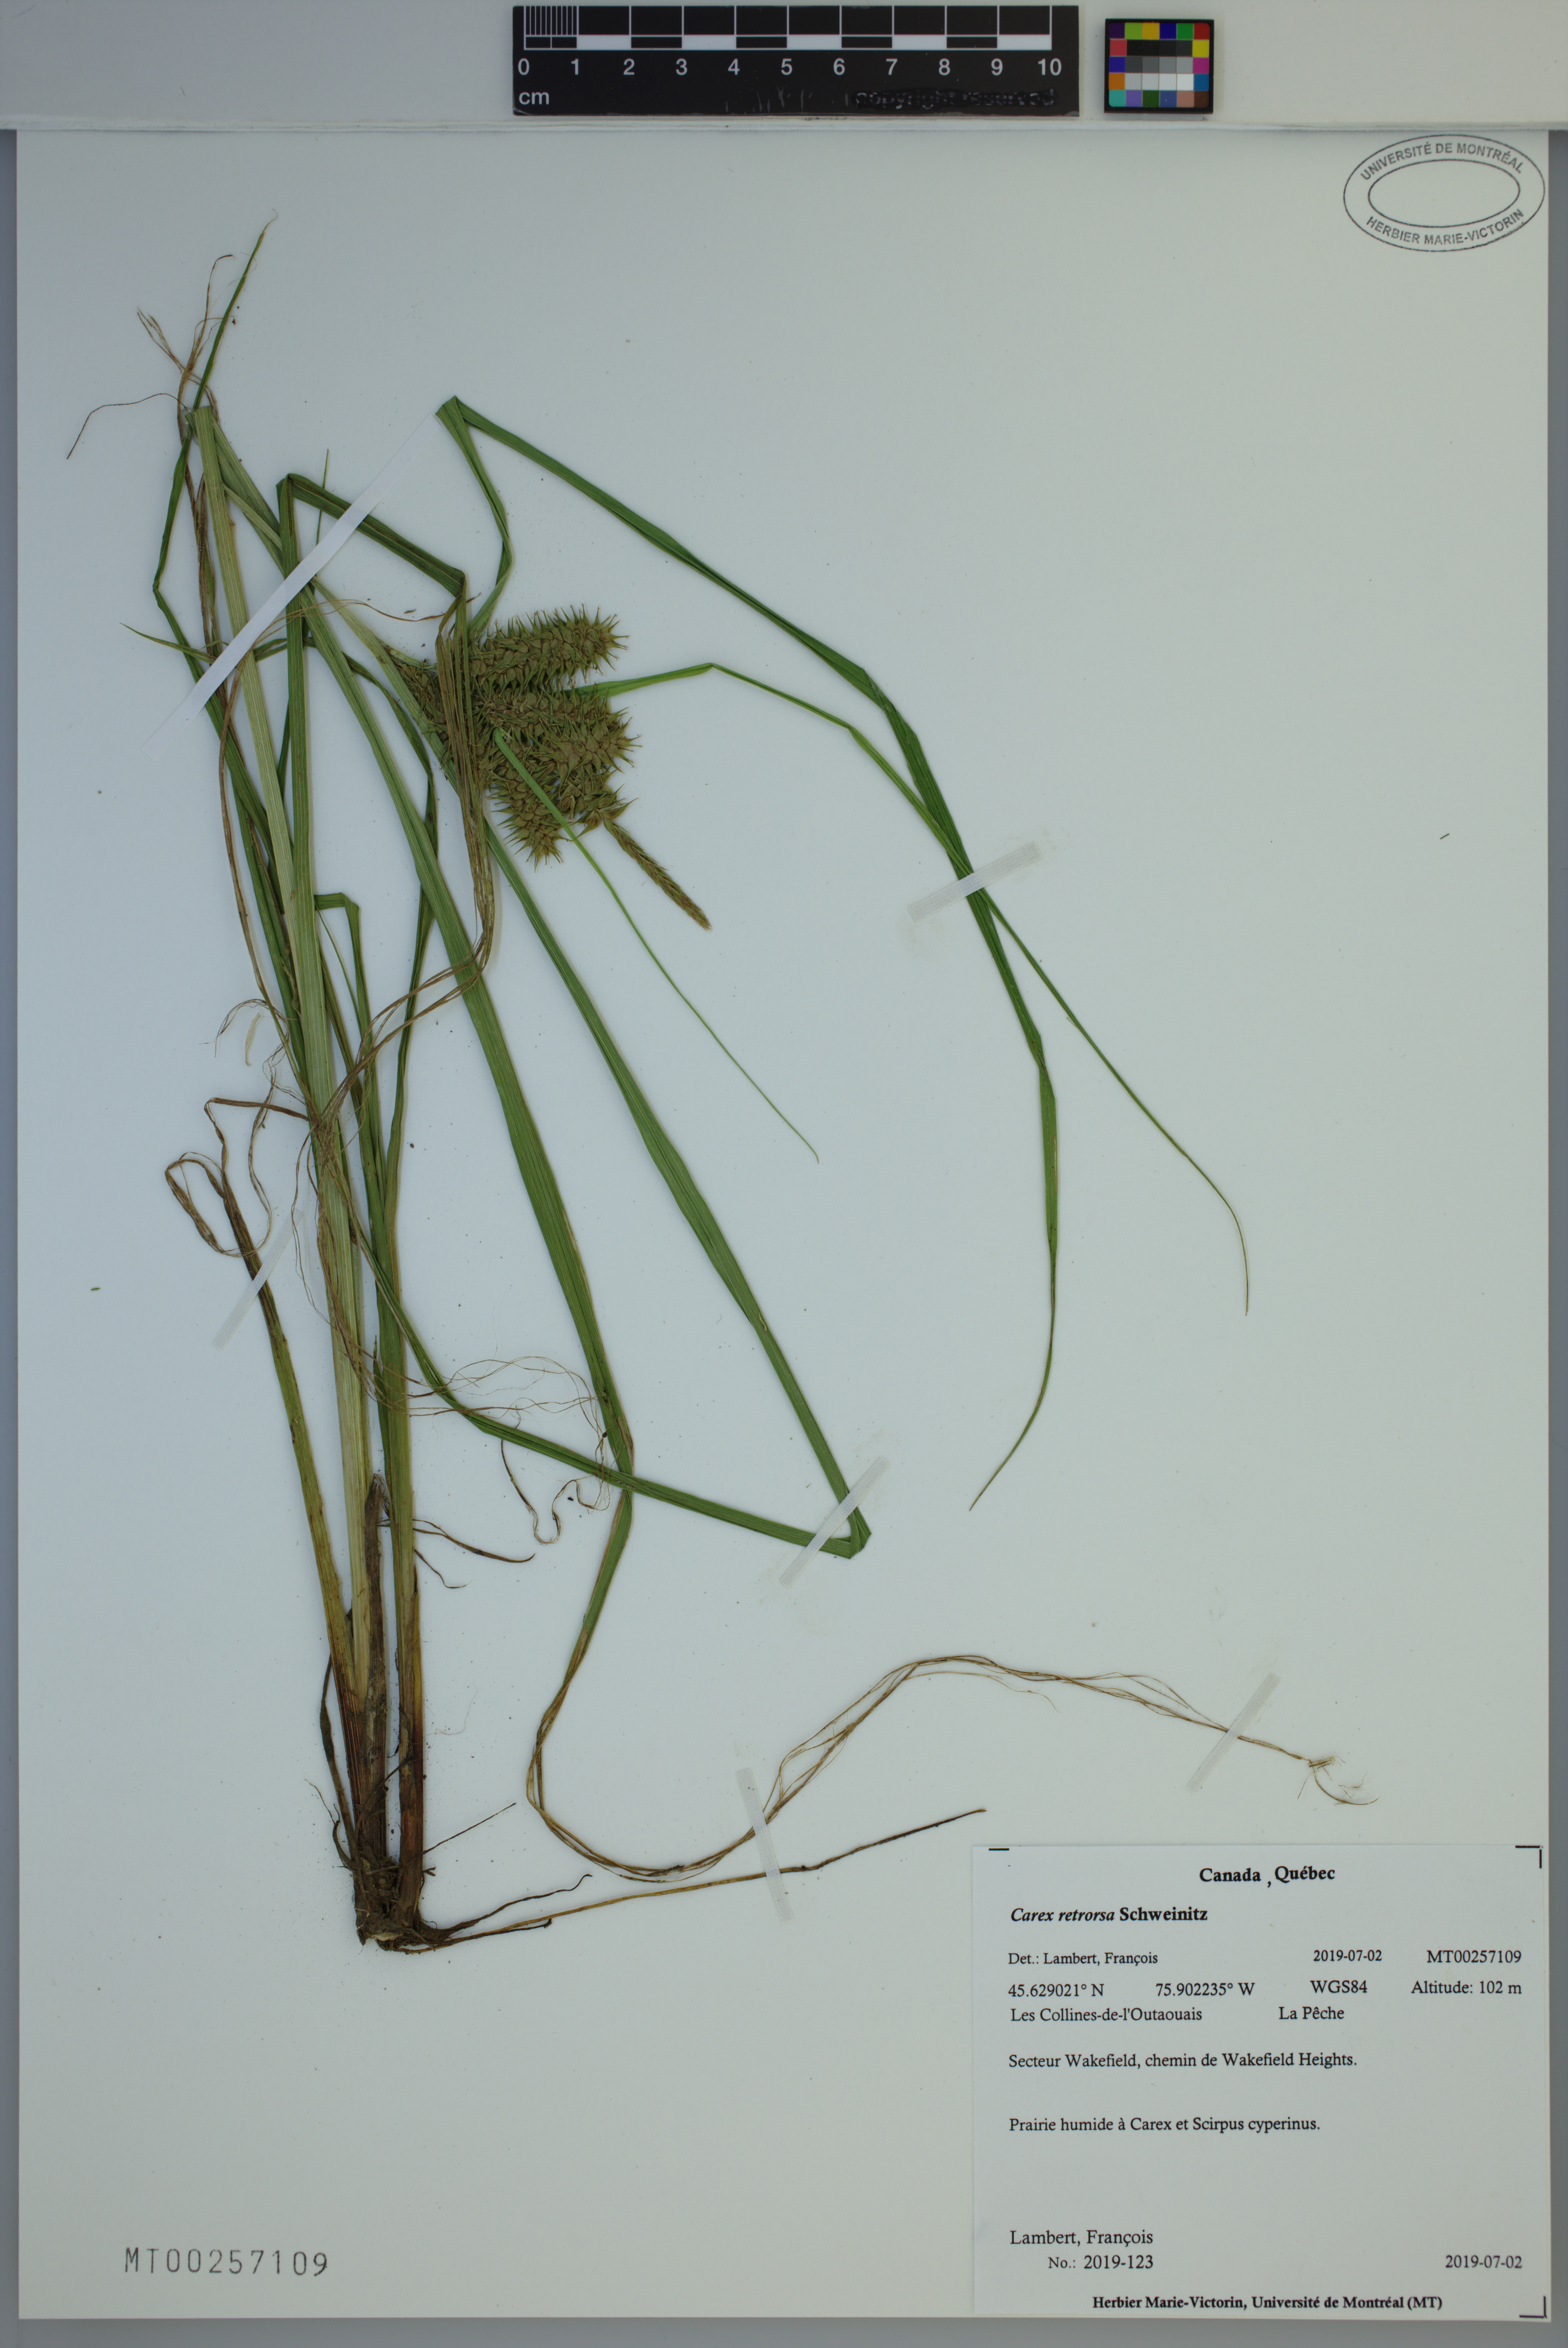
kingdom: Plantae
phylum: Tracheophyta
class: Liliopsida
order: Poales
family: Cyperaceae
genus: Carex
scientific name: Carex retrorsa
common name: Knot-sheath sedge
